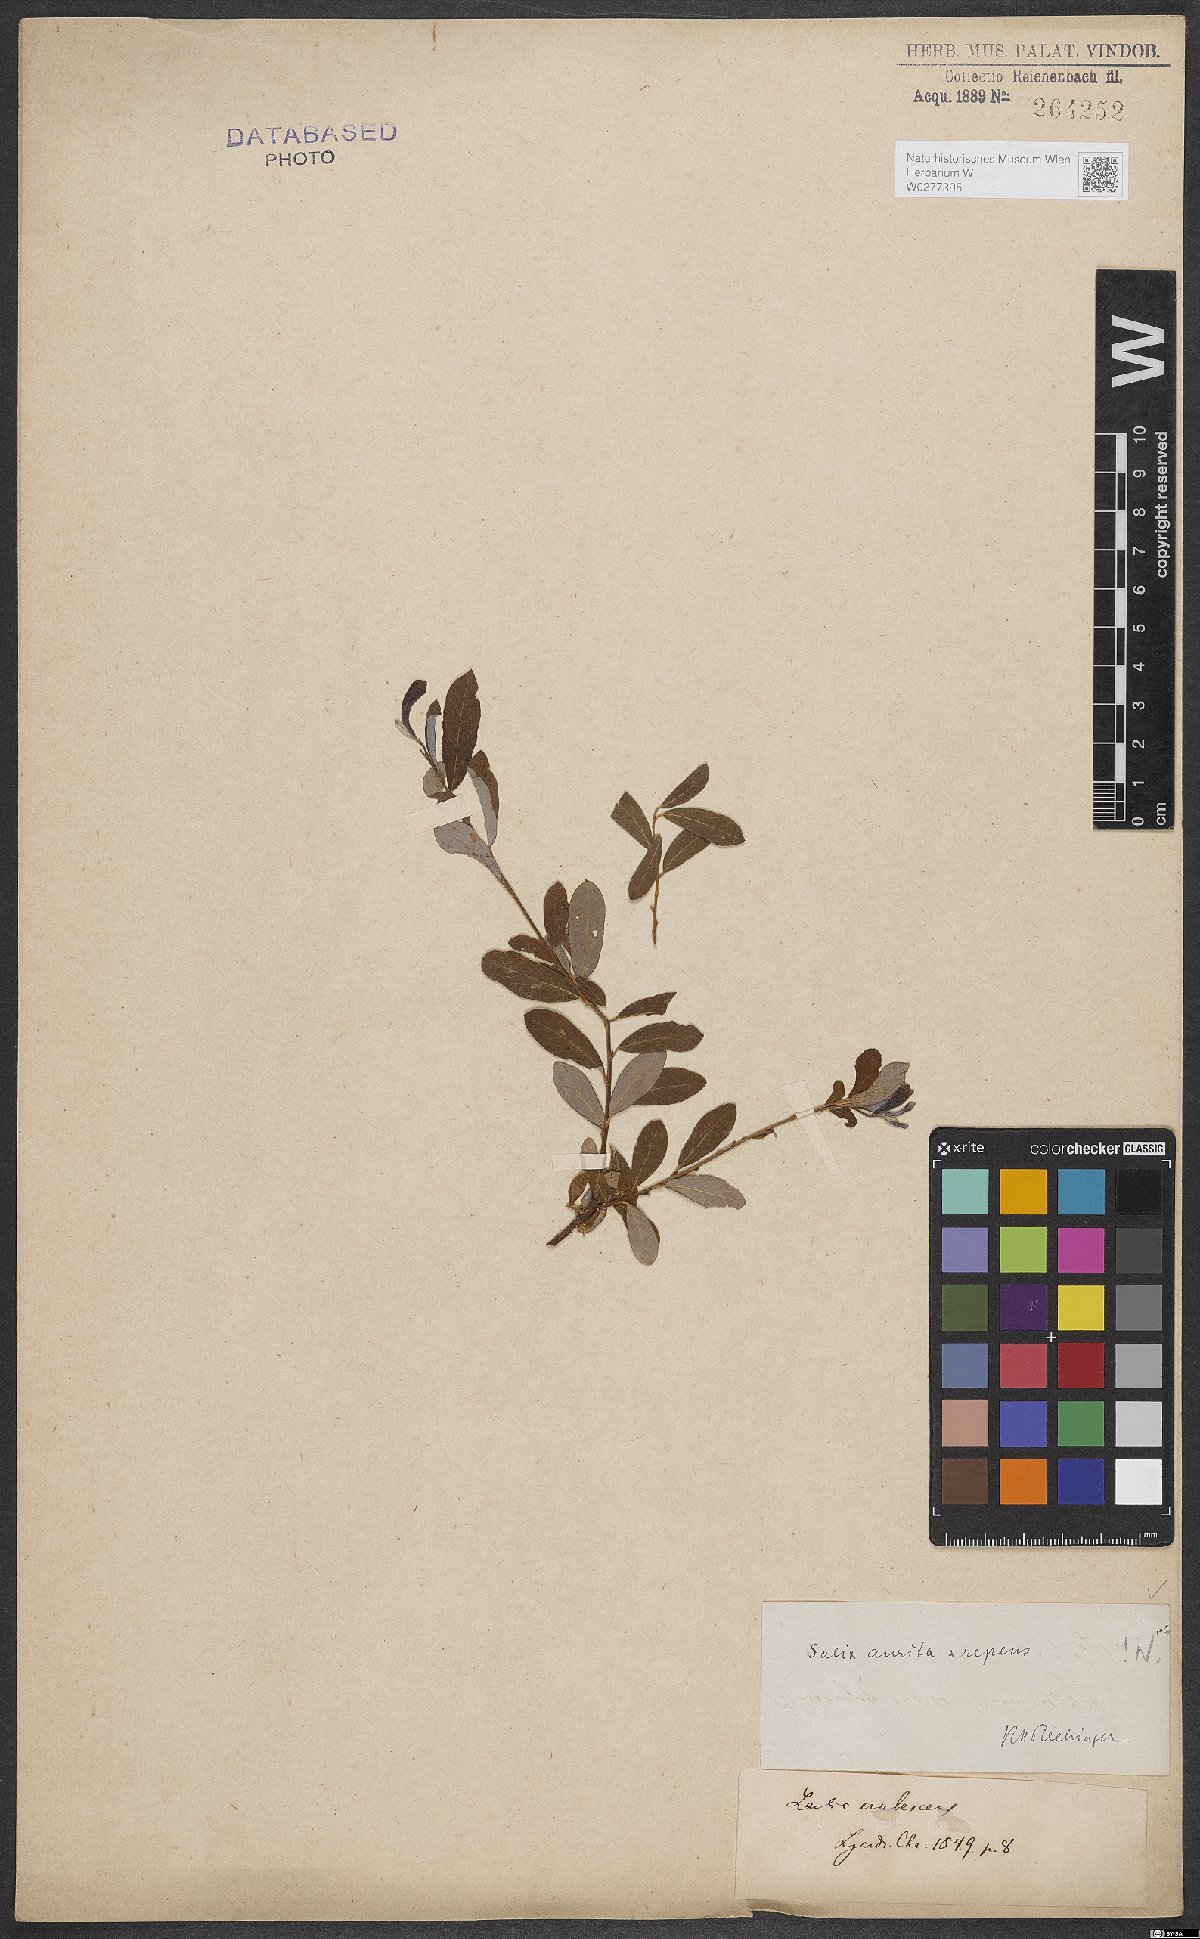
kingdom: Plantae
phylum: Tracheophyta
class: Magnoliopsida
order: Malpighiales
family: Salicaceae
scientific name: Salicaceae
